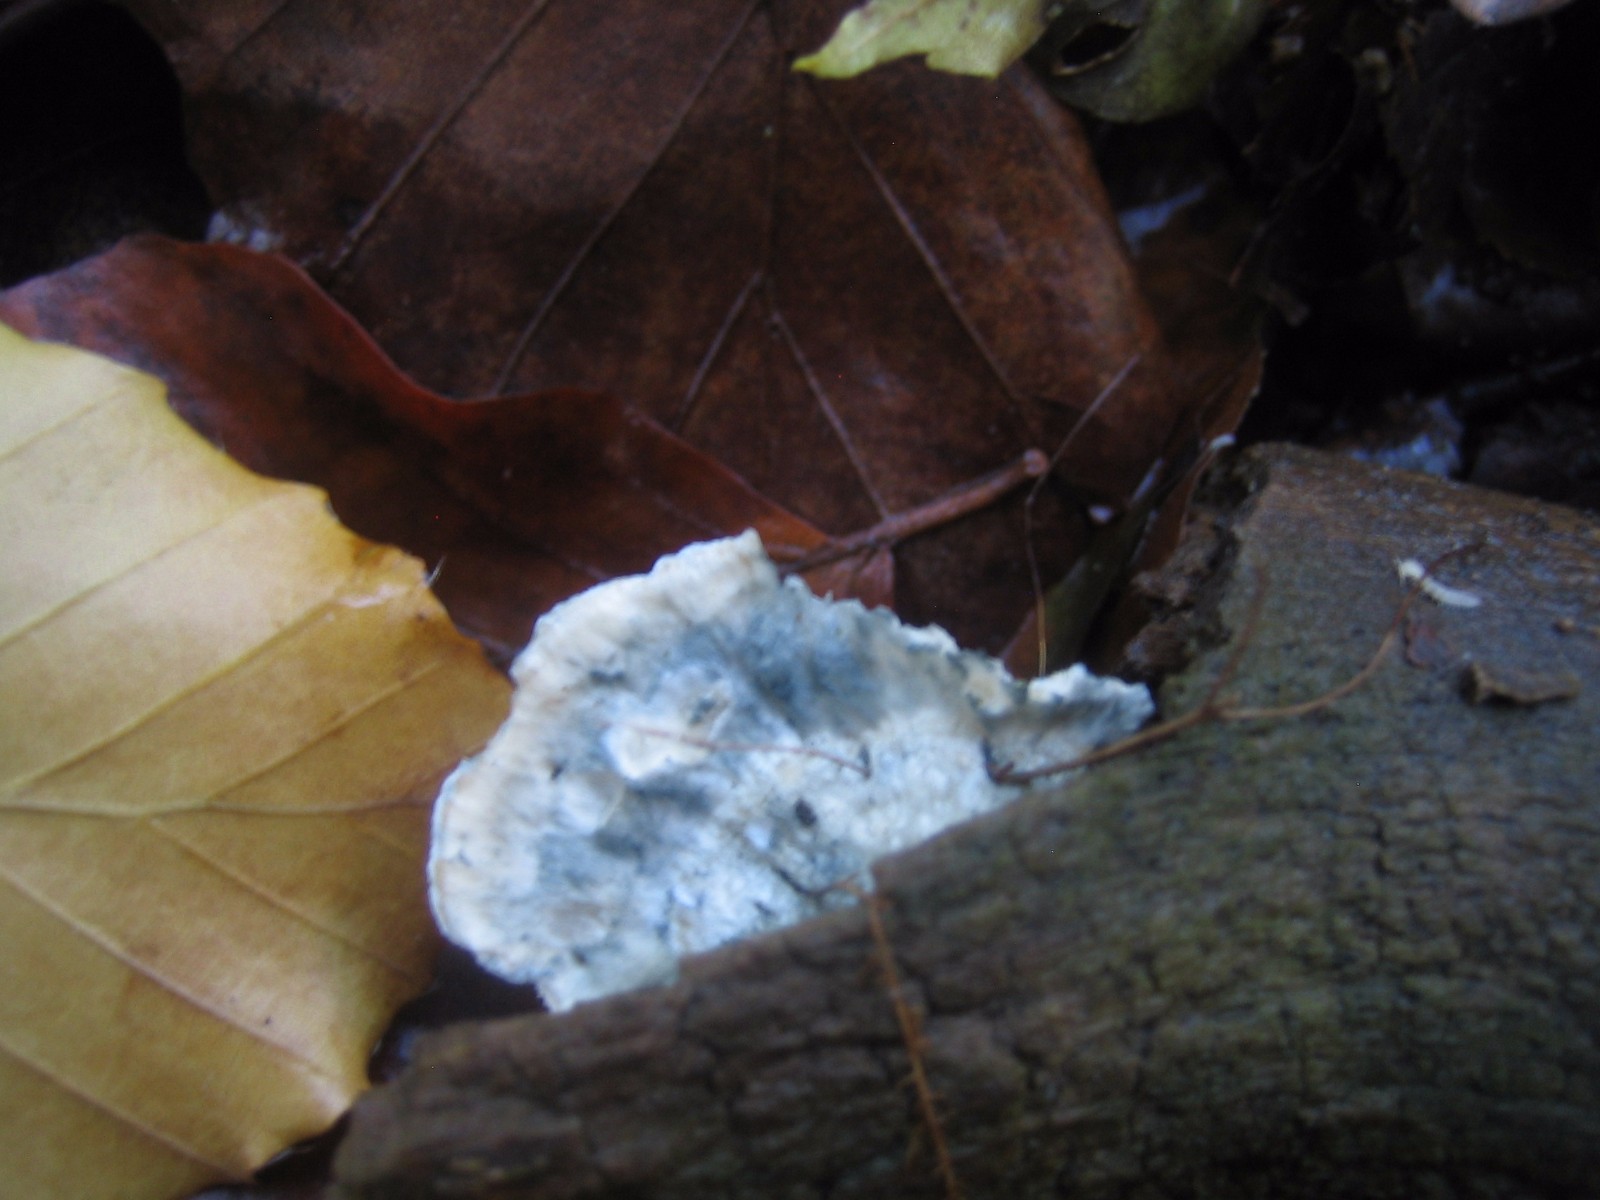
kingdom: Fungi
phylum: Basidiomycota
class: Agaricomycetes
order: Polyporales
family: Polyporaceae
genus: Cyanosporus
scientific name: Cyanosporus caesius
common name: blålig kødporesvamp
